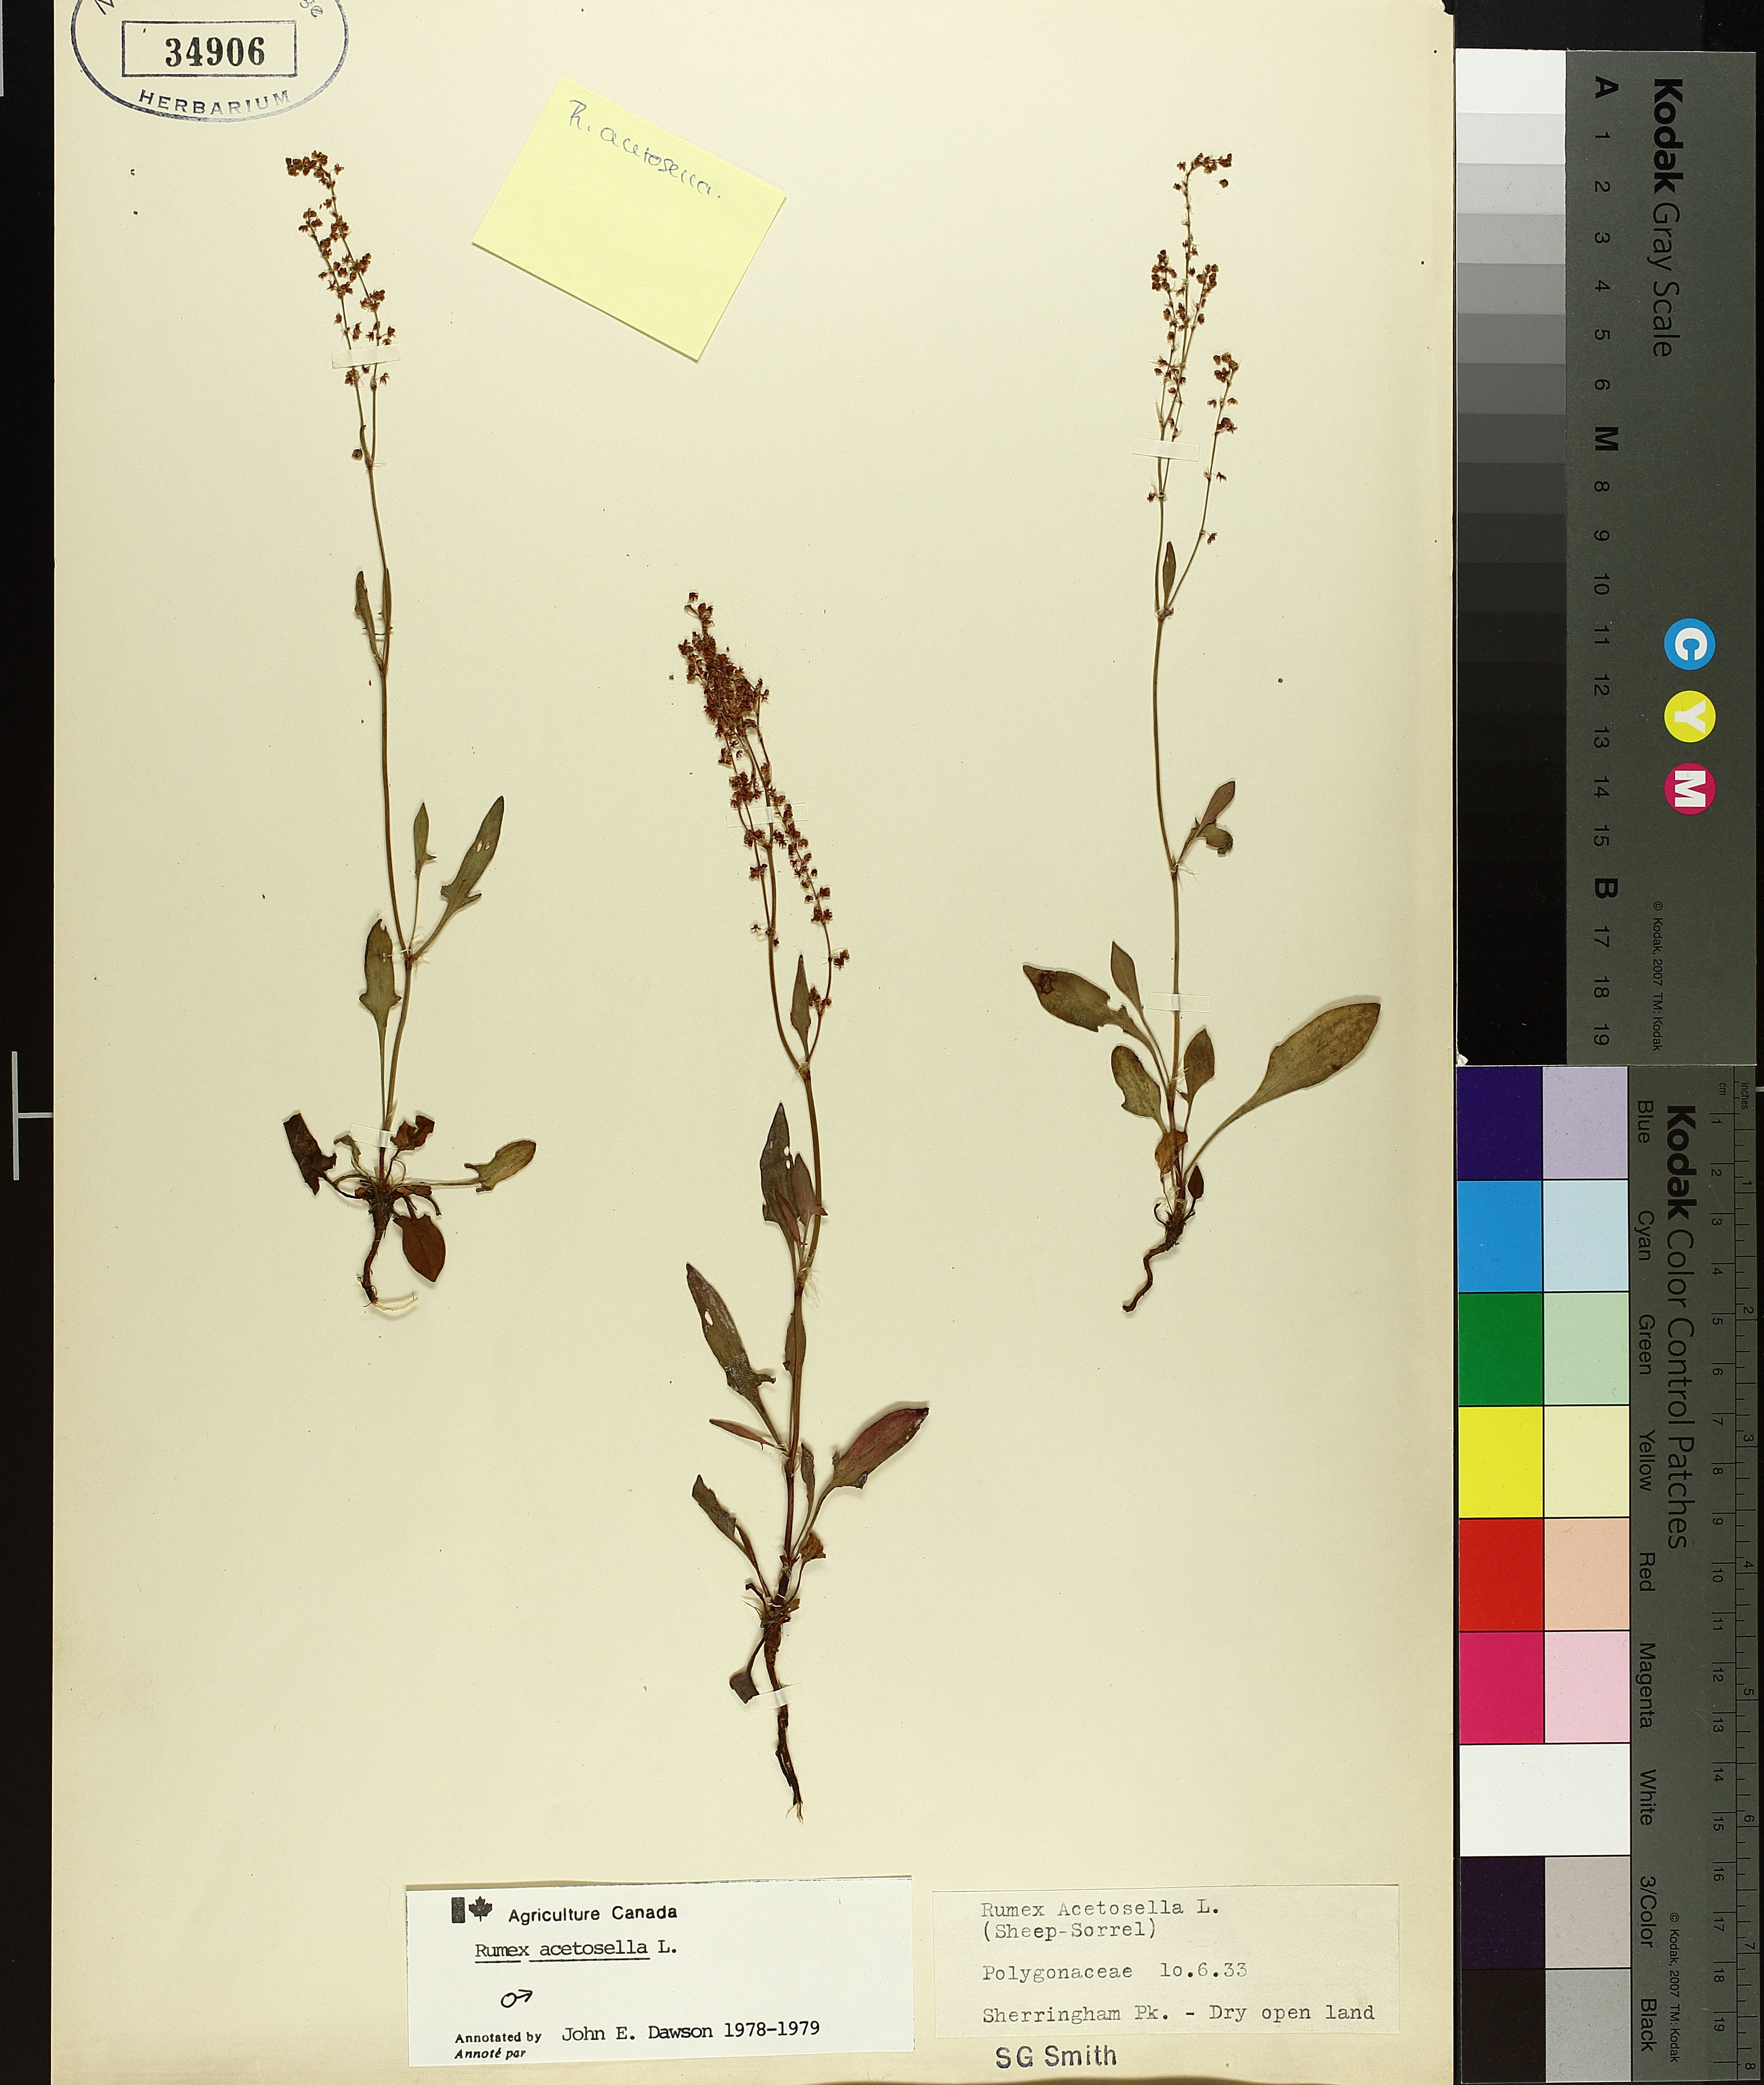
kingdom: Plantae
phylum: Tracheophyta
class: Magnoliopsida
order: Caryophyllales
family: Polygonaceae
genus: Rumex
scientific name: Rumex acetosella
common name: Common sheep sorrel
